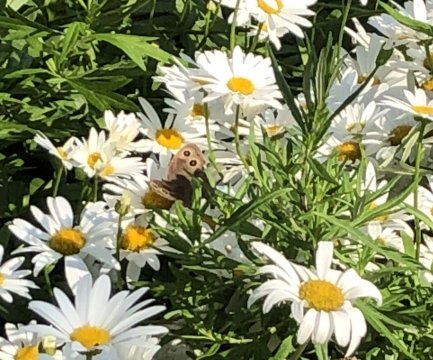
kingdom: Animalia
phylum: Arthropoda
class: Insecta
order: Lepidoptera
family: Nymphalidae
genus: Cercyonis
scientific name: Cercyonis pegala
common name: Common Wood-Nymph
